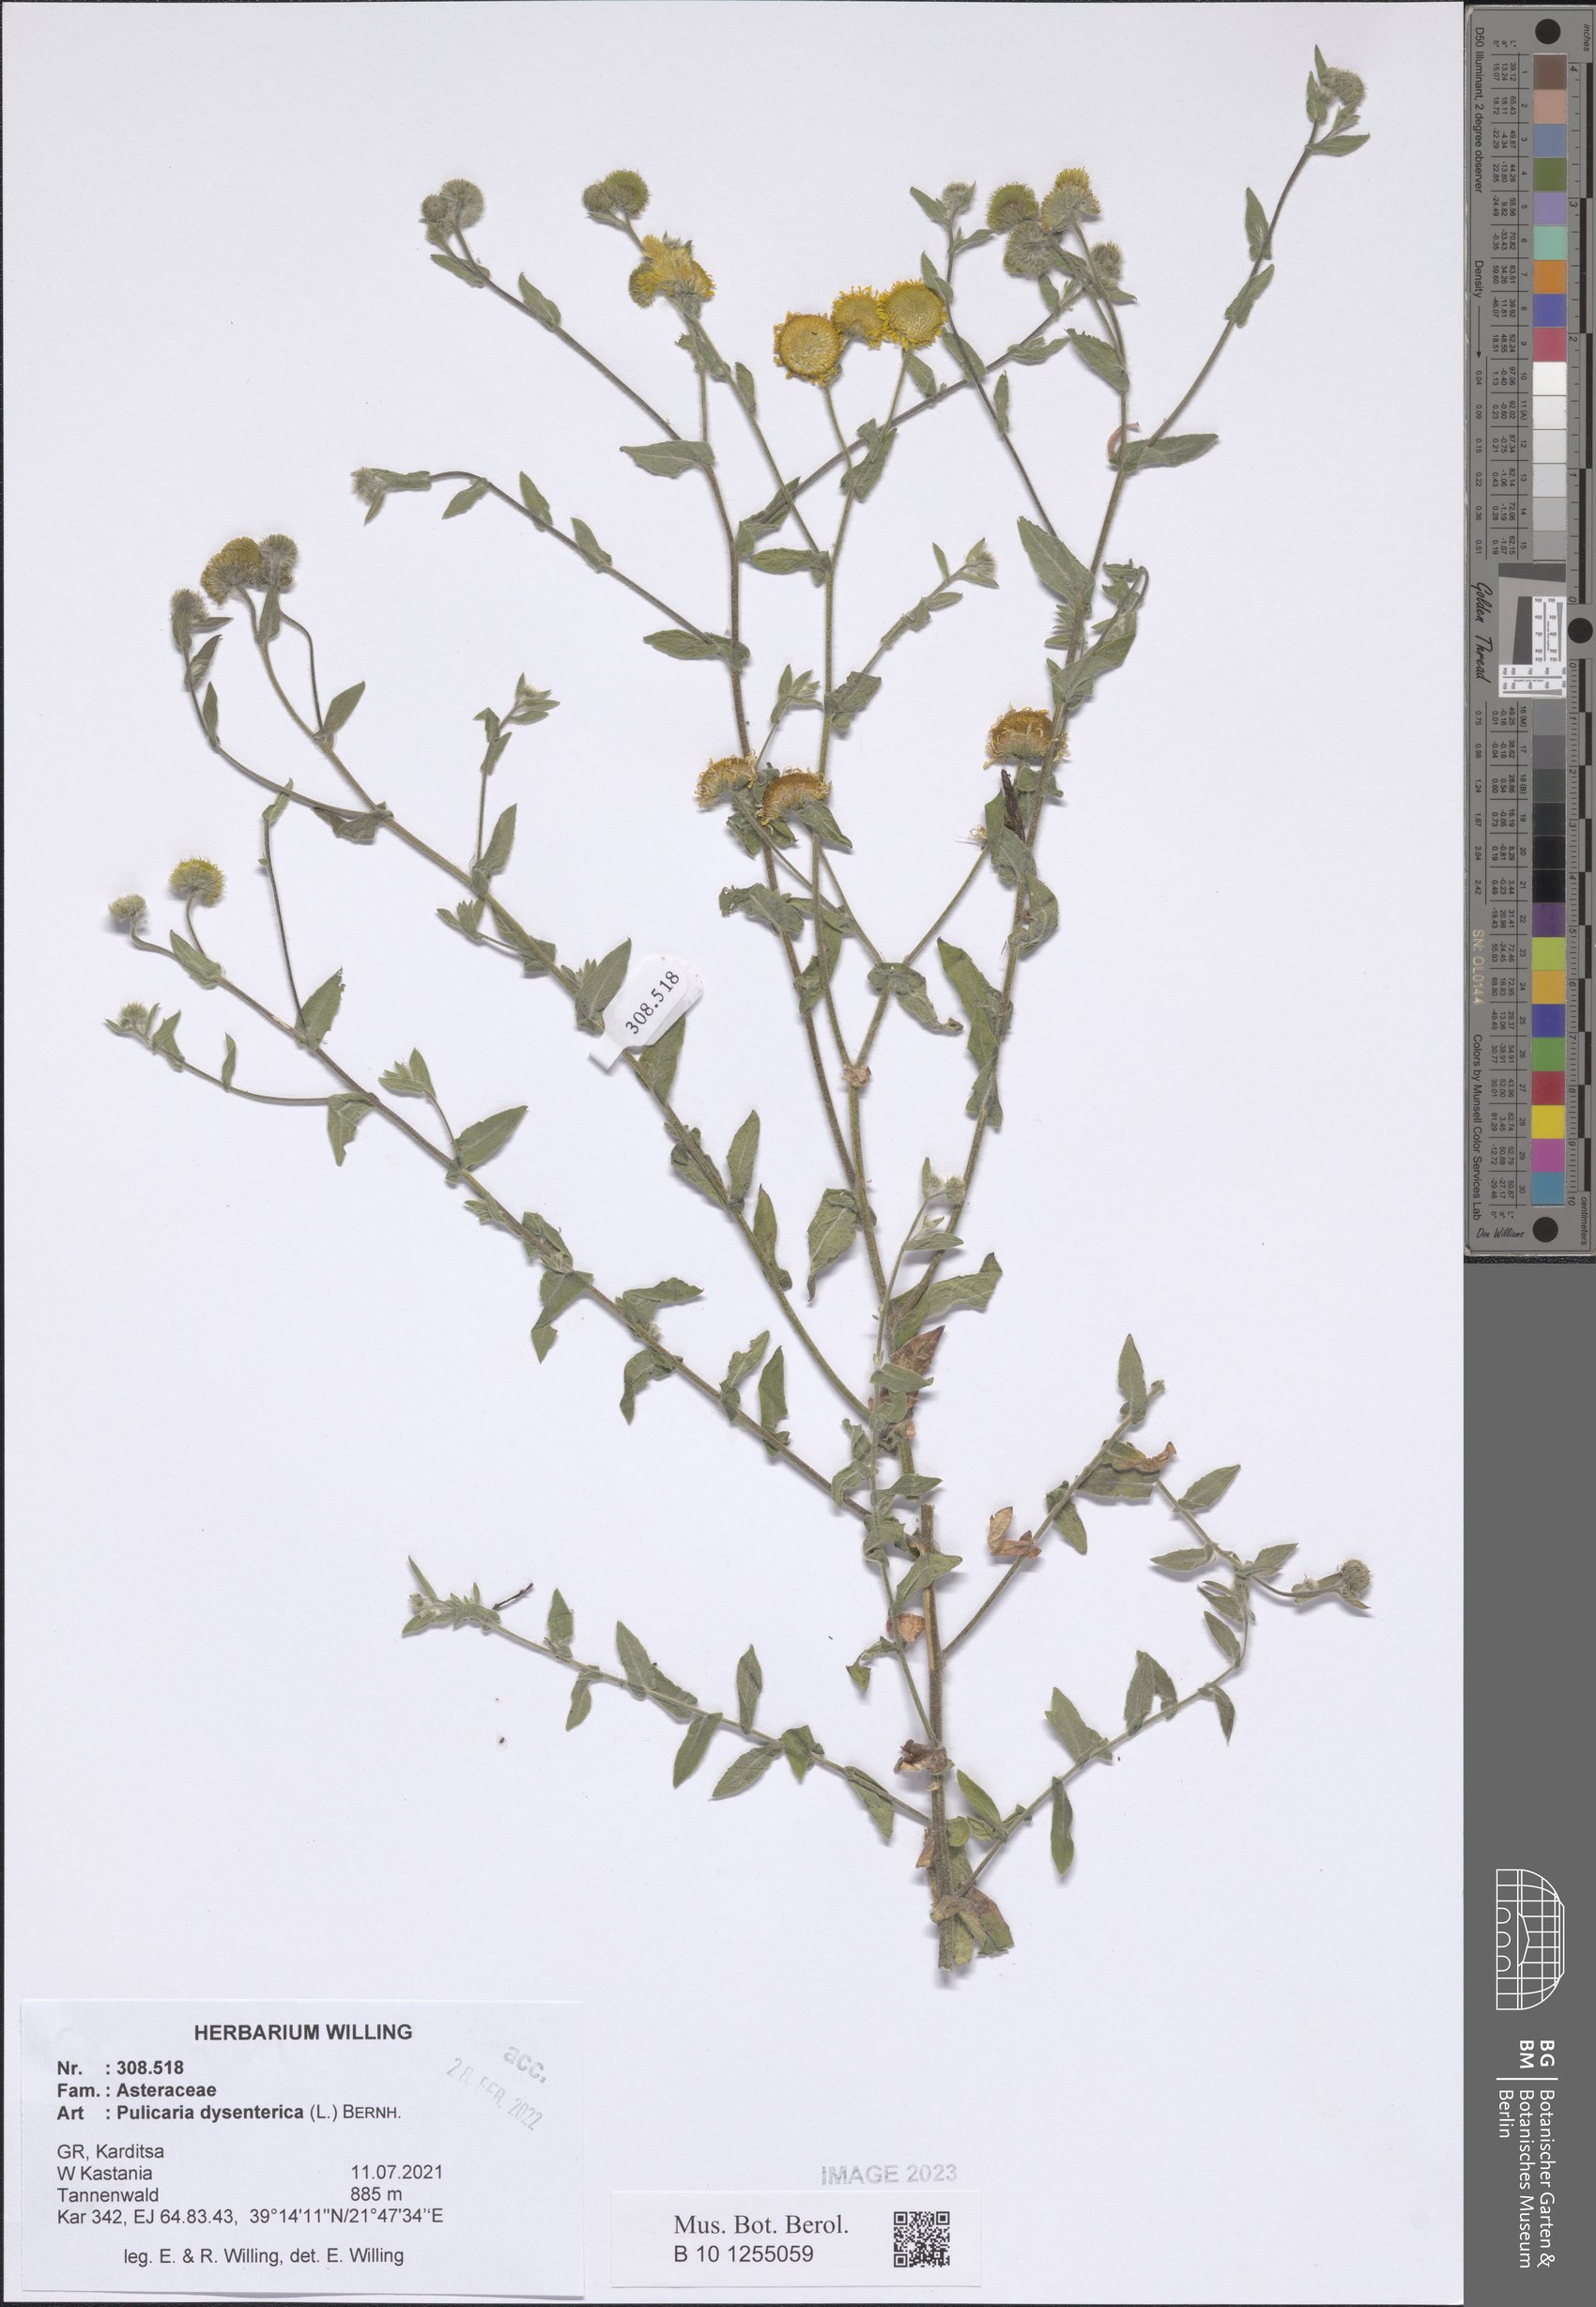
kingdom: Plantae
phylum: Tracheophyta
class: Magnoliopsida
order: Asterales
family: Asteraceae
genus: Pulicaria
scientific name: Pulicaria dysenterica
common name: Common fleabane
